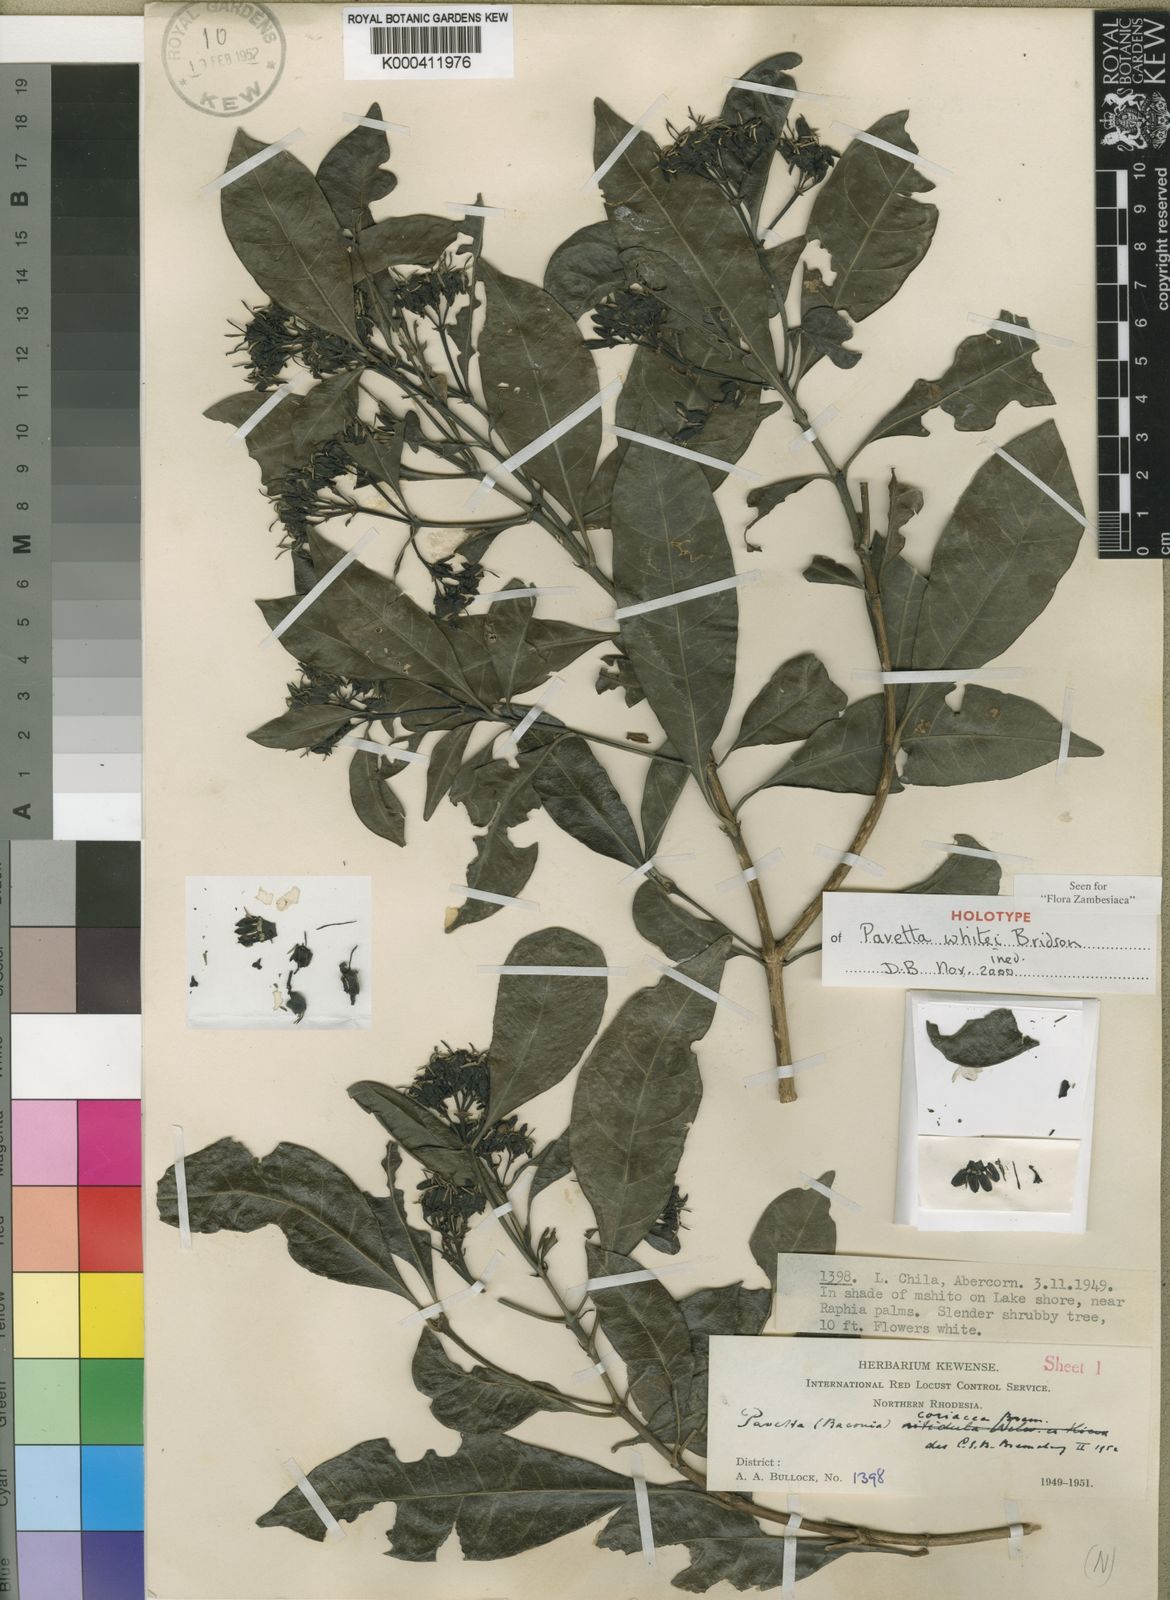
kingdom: Plantae
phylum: Tracheophyta
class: Magnoliopsida
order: Gentianales
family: Rubiaceae
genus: Pavetta
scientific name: Pavetta
